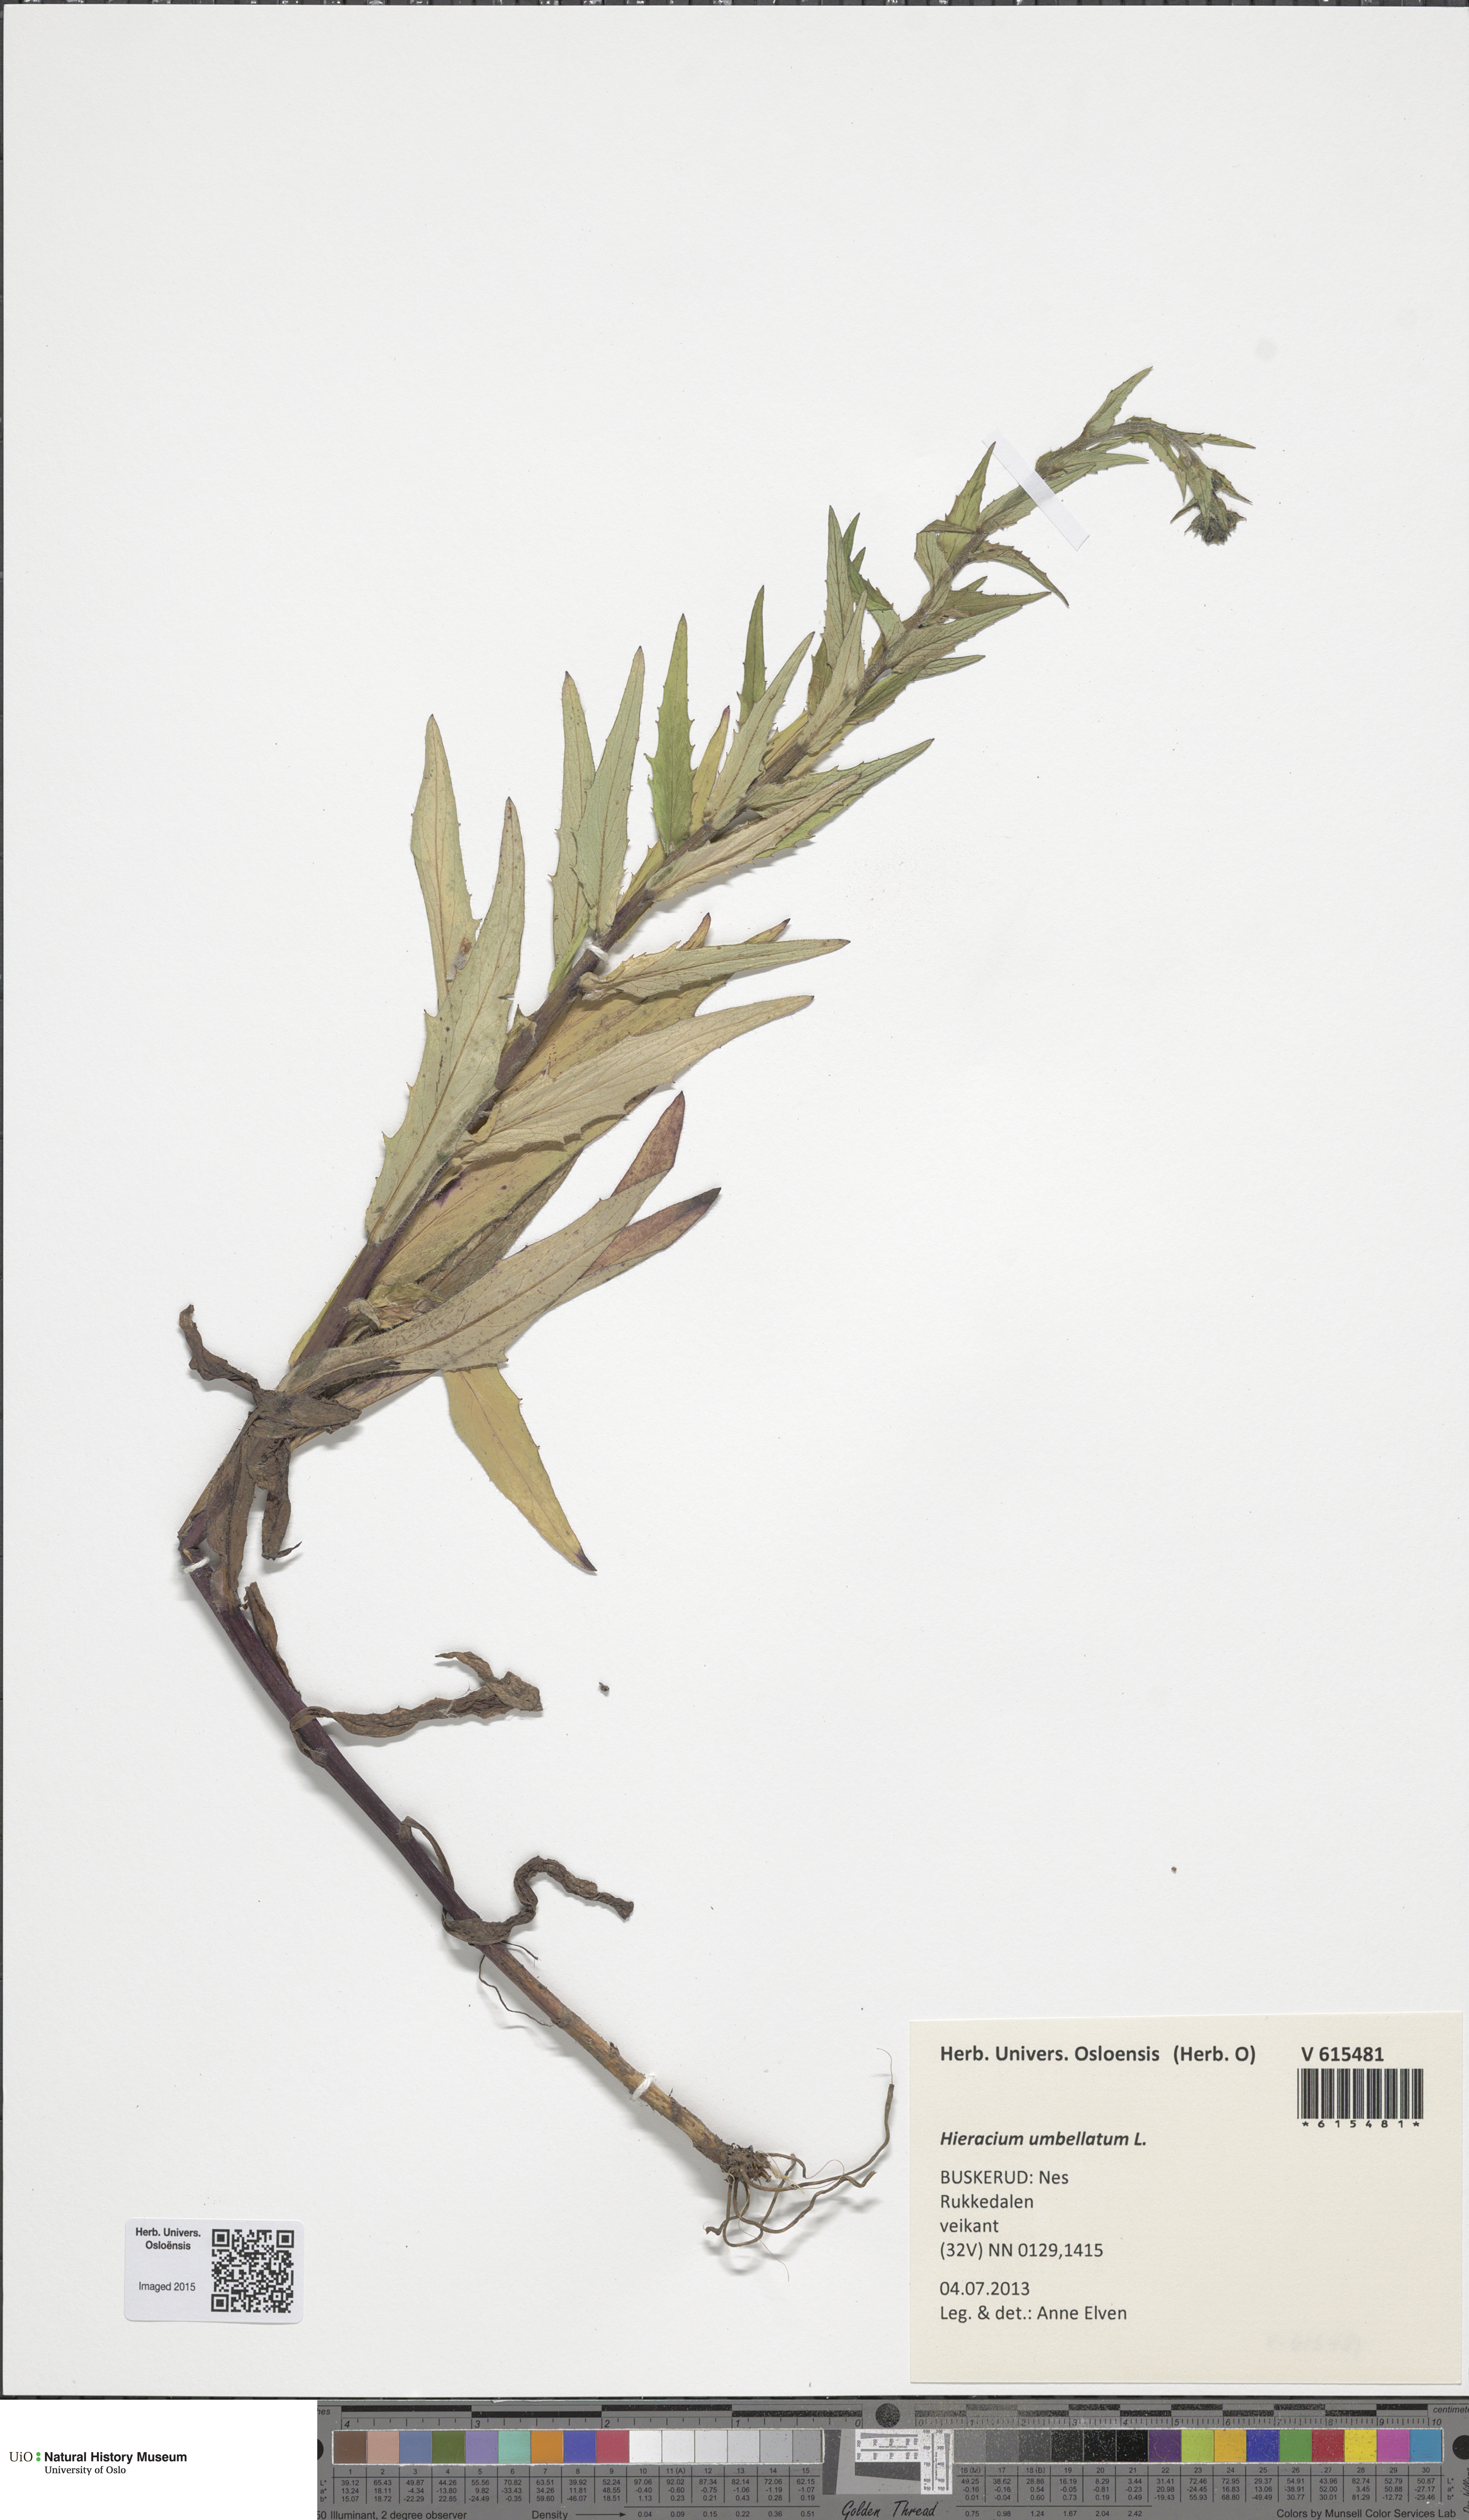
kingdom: Plantae
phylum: Tracheophyta
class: Magnoliopsida
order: Asterales
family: Asteraceae
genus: Hieracium
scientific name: Hieracium umbellatum
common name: Northern hawkweed
